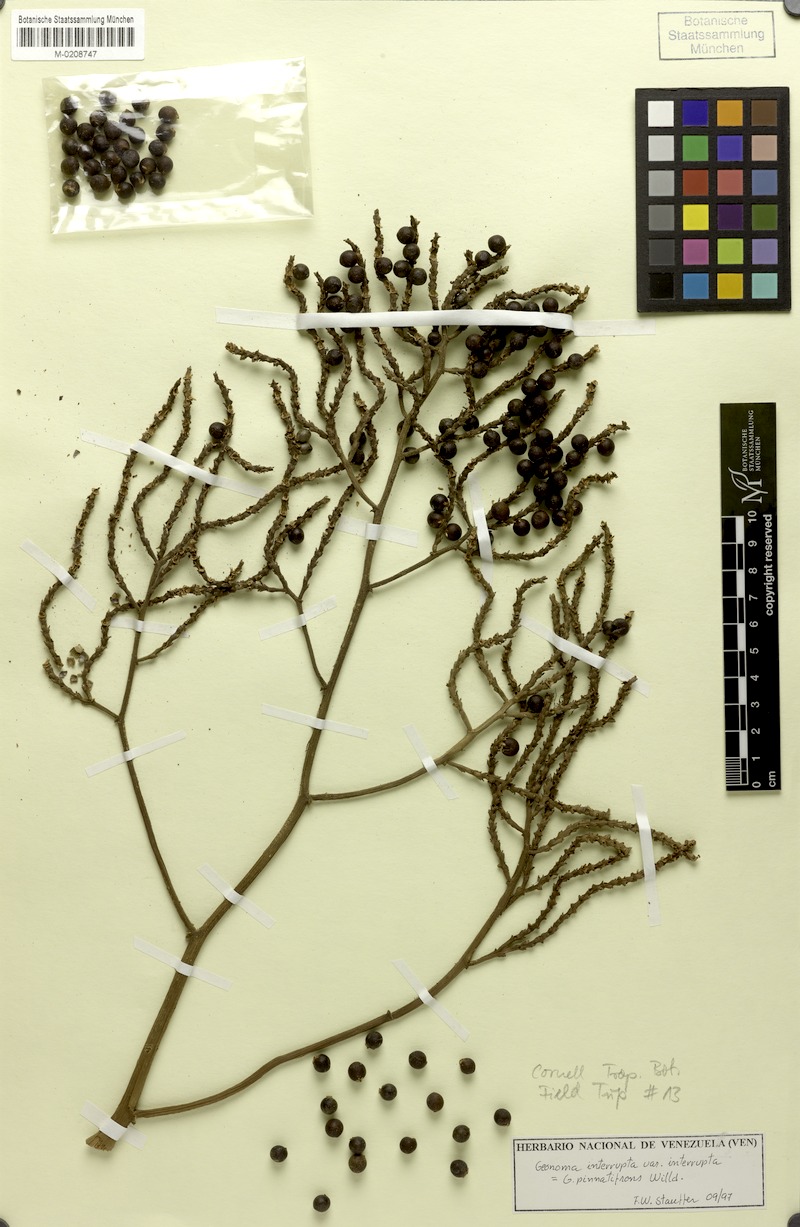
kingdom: Plantae
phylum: Tracheophyta
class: Liliopsida
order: Arecales
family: Arecaceae
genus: Geonoma
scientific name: Geonoma interrupta
